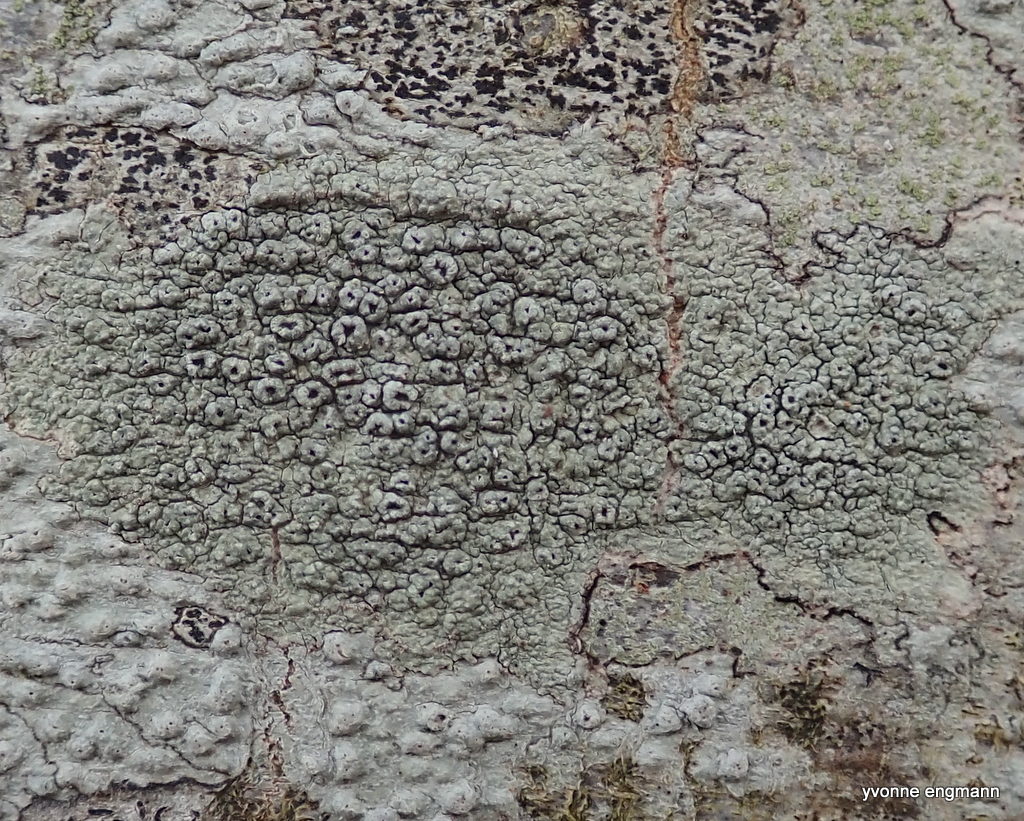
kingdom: Fungi
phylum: Ascomycota
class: Lecanoromycetes
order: Pertusariales
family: Pertusariaceae
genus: Pertusaria
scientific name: Pertusaria hymenea
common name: åben prikvortelav
